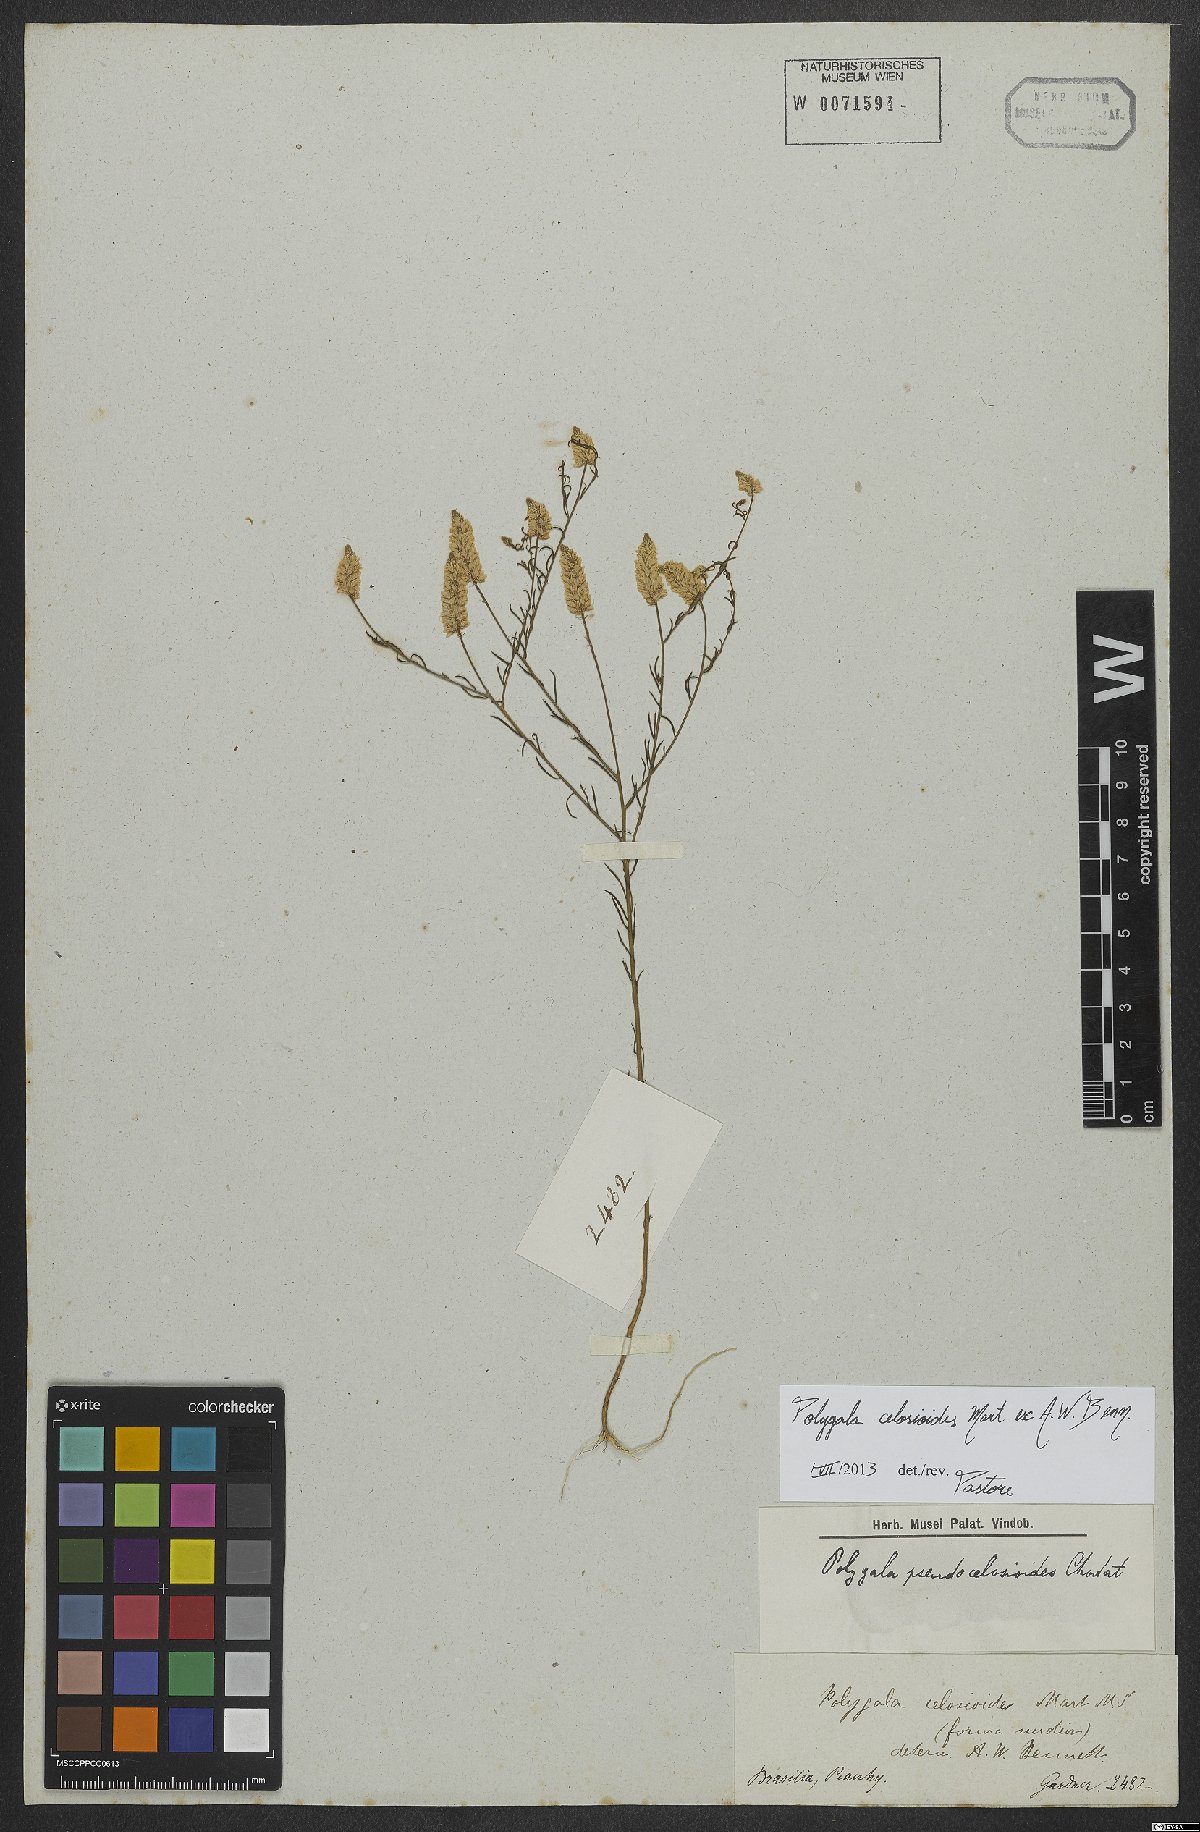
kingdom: Plantae
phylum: Tracheophyta
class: Magnoliopsida
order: Fabales
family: Polygalaceae
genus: Polygala
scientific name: Polygala celosioides
